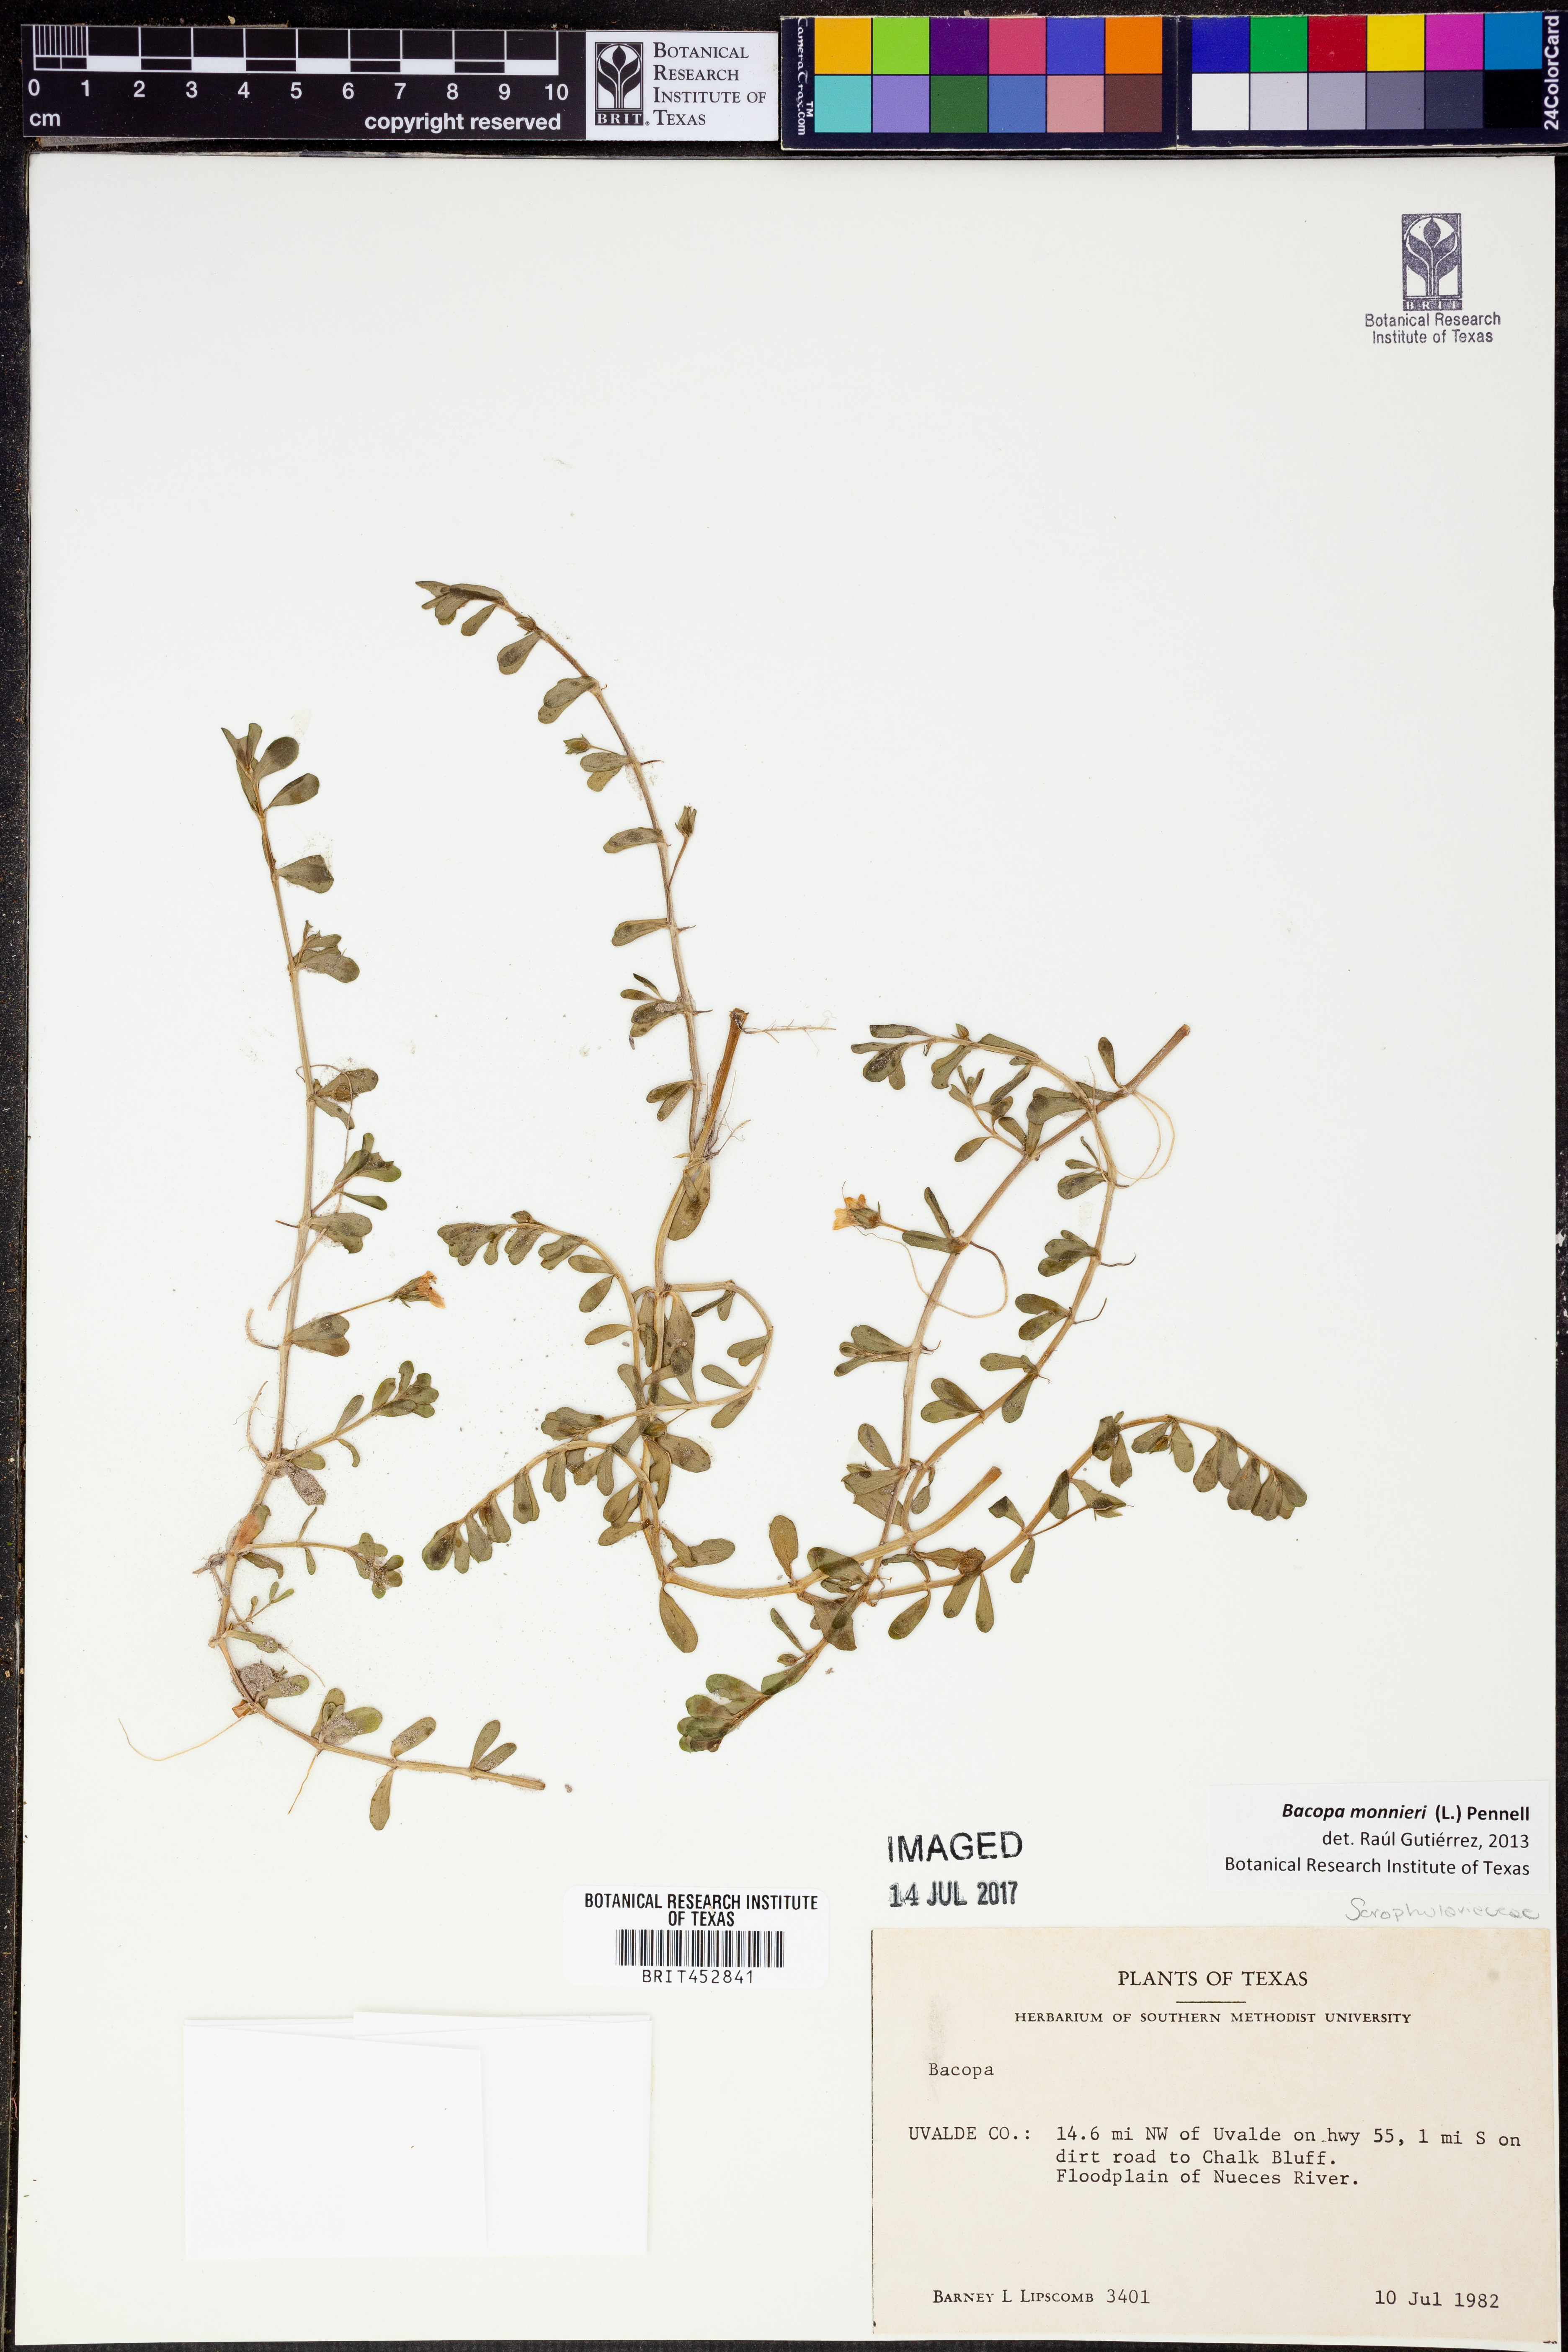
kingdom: Plantae
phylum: Tracheophyta
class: Magnoliopsida
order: Lamiales
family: Plantaginaceae
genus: Bacopa
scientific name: Bacopa monnieri
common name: Indian-pennywort
